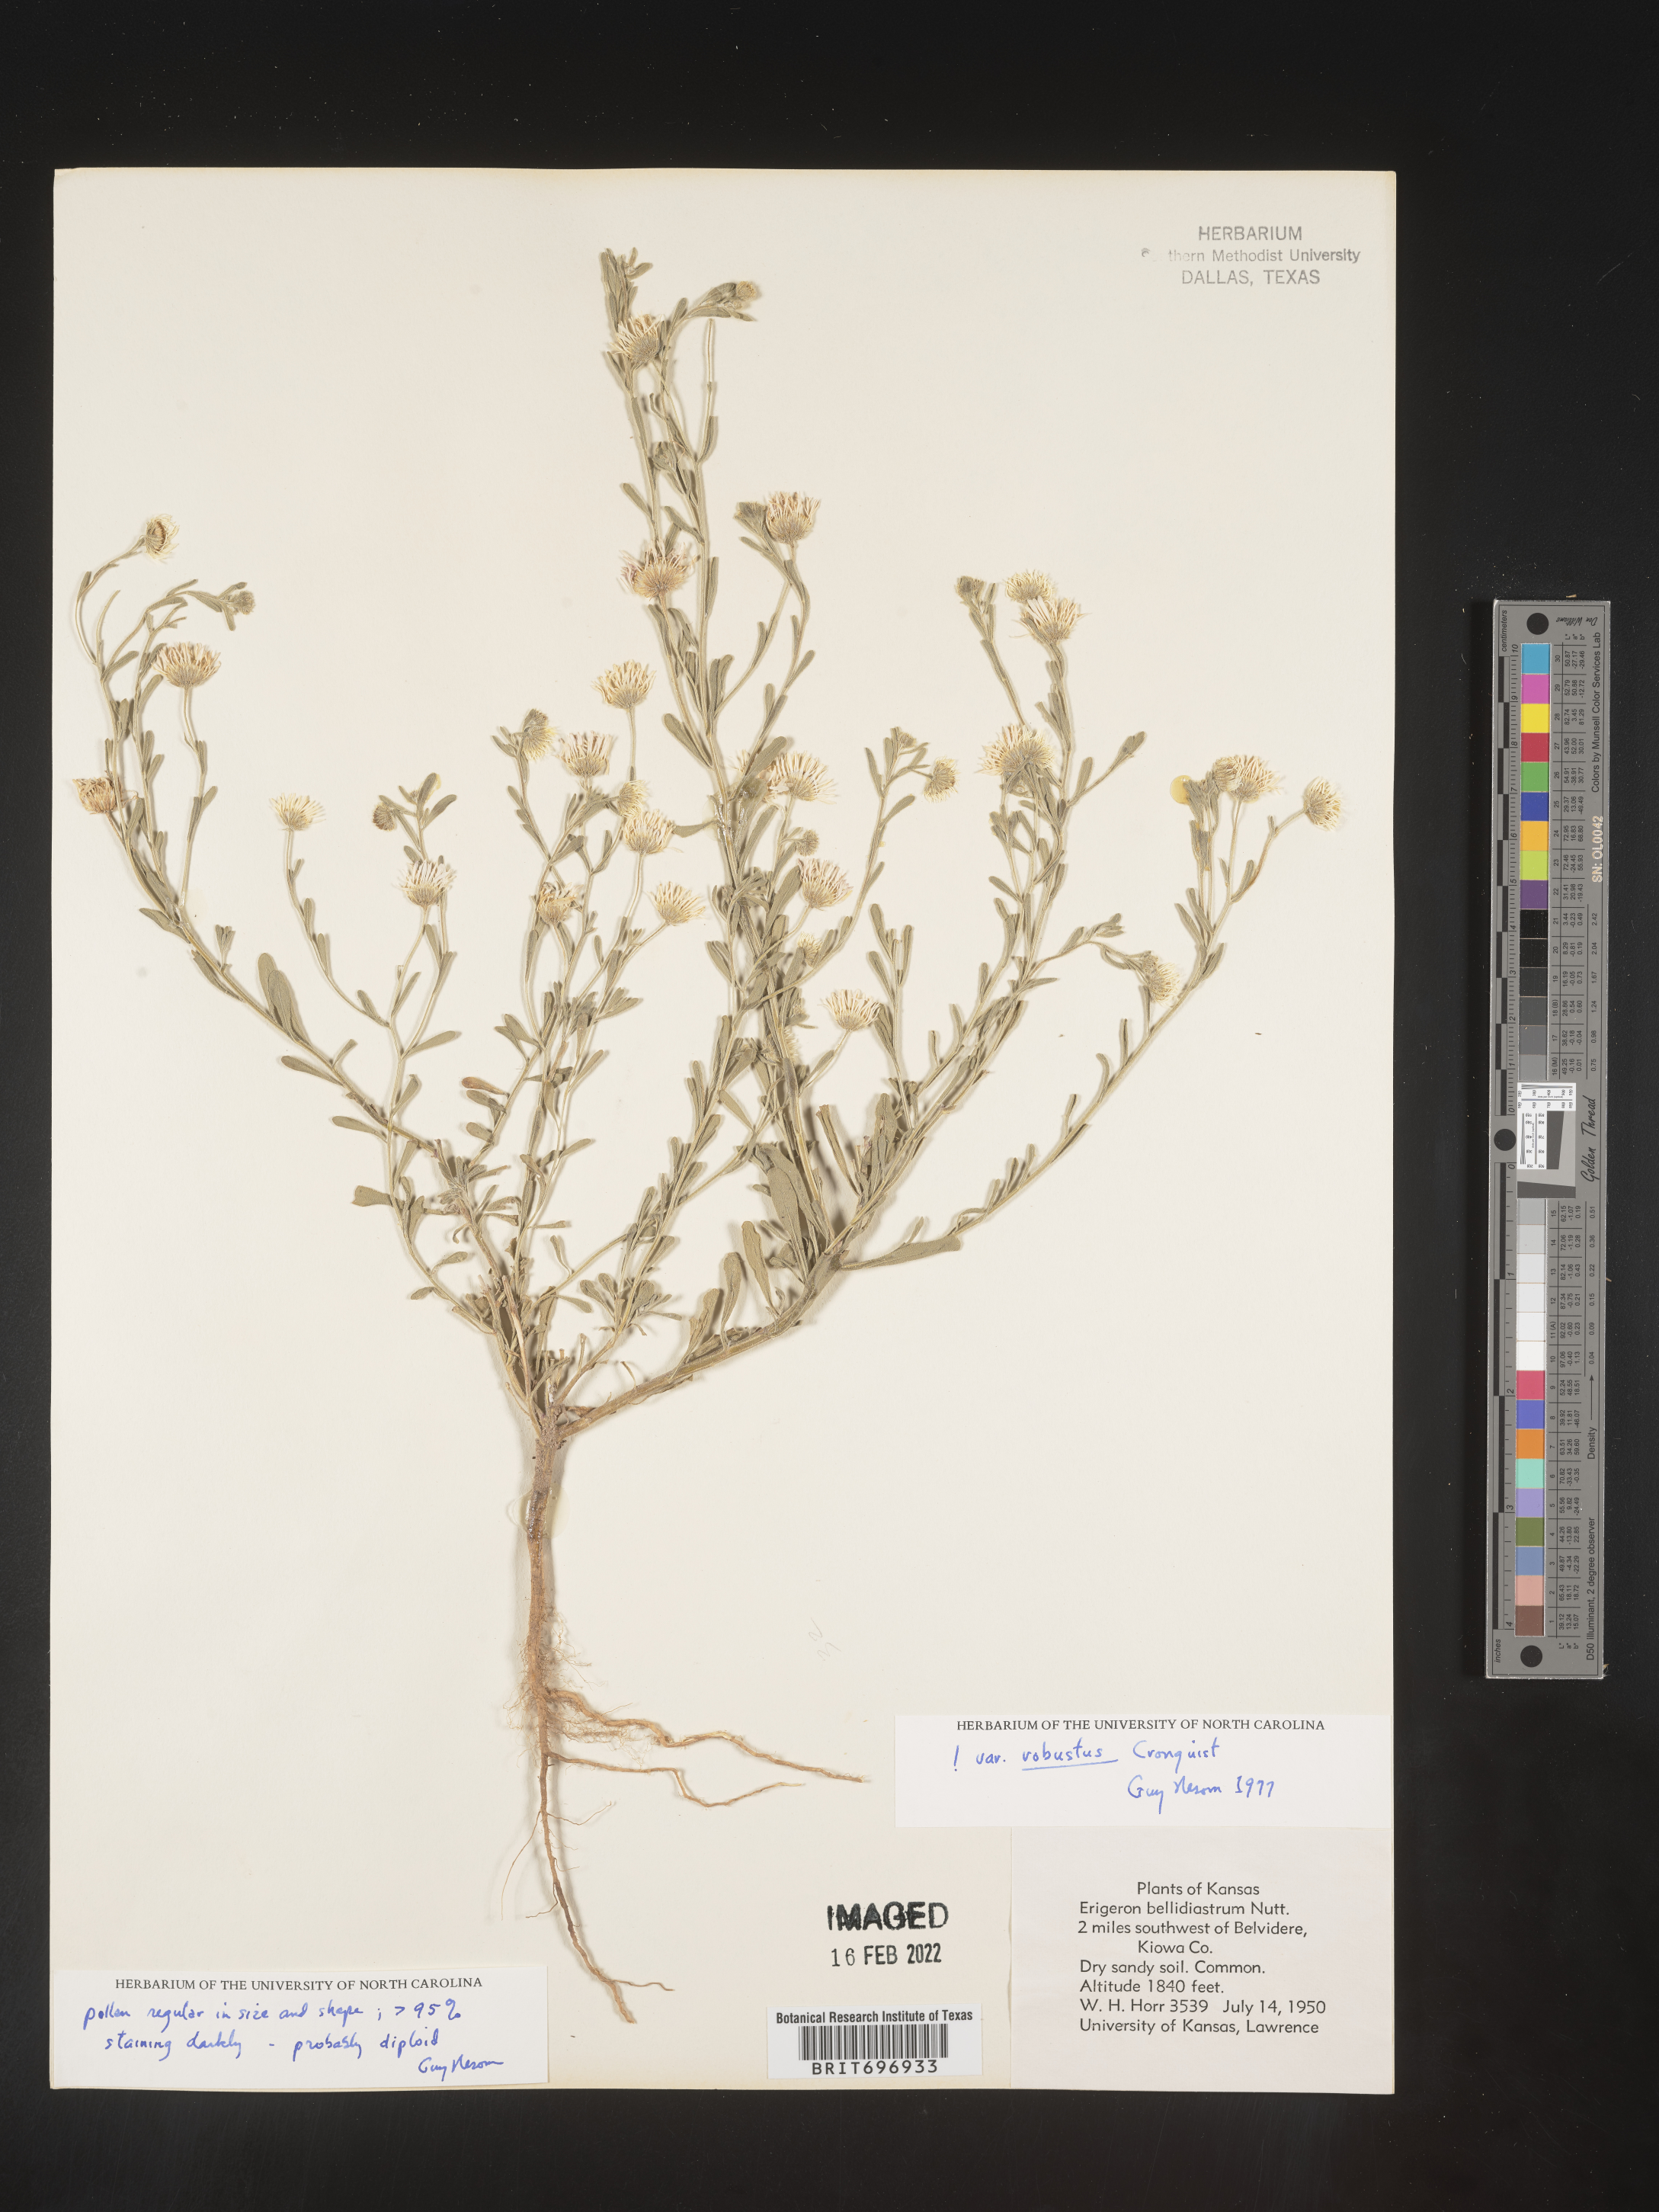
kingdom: Plantae
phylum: Tracheophyta
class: Magnoliopsida
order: Asterales
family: Asteraceae
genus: Erigeron
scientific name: Erigeron bellidiastrum
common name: Sand fleabane
